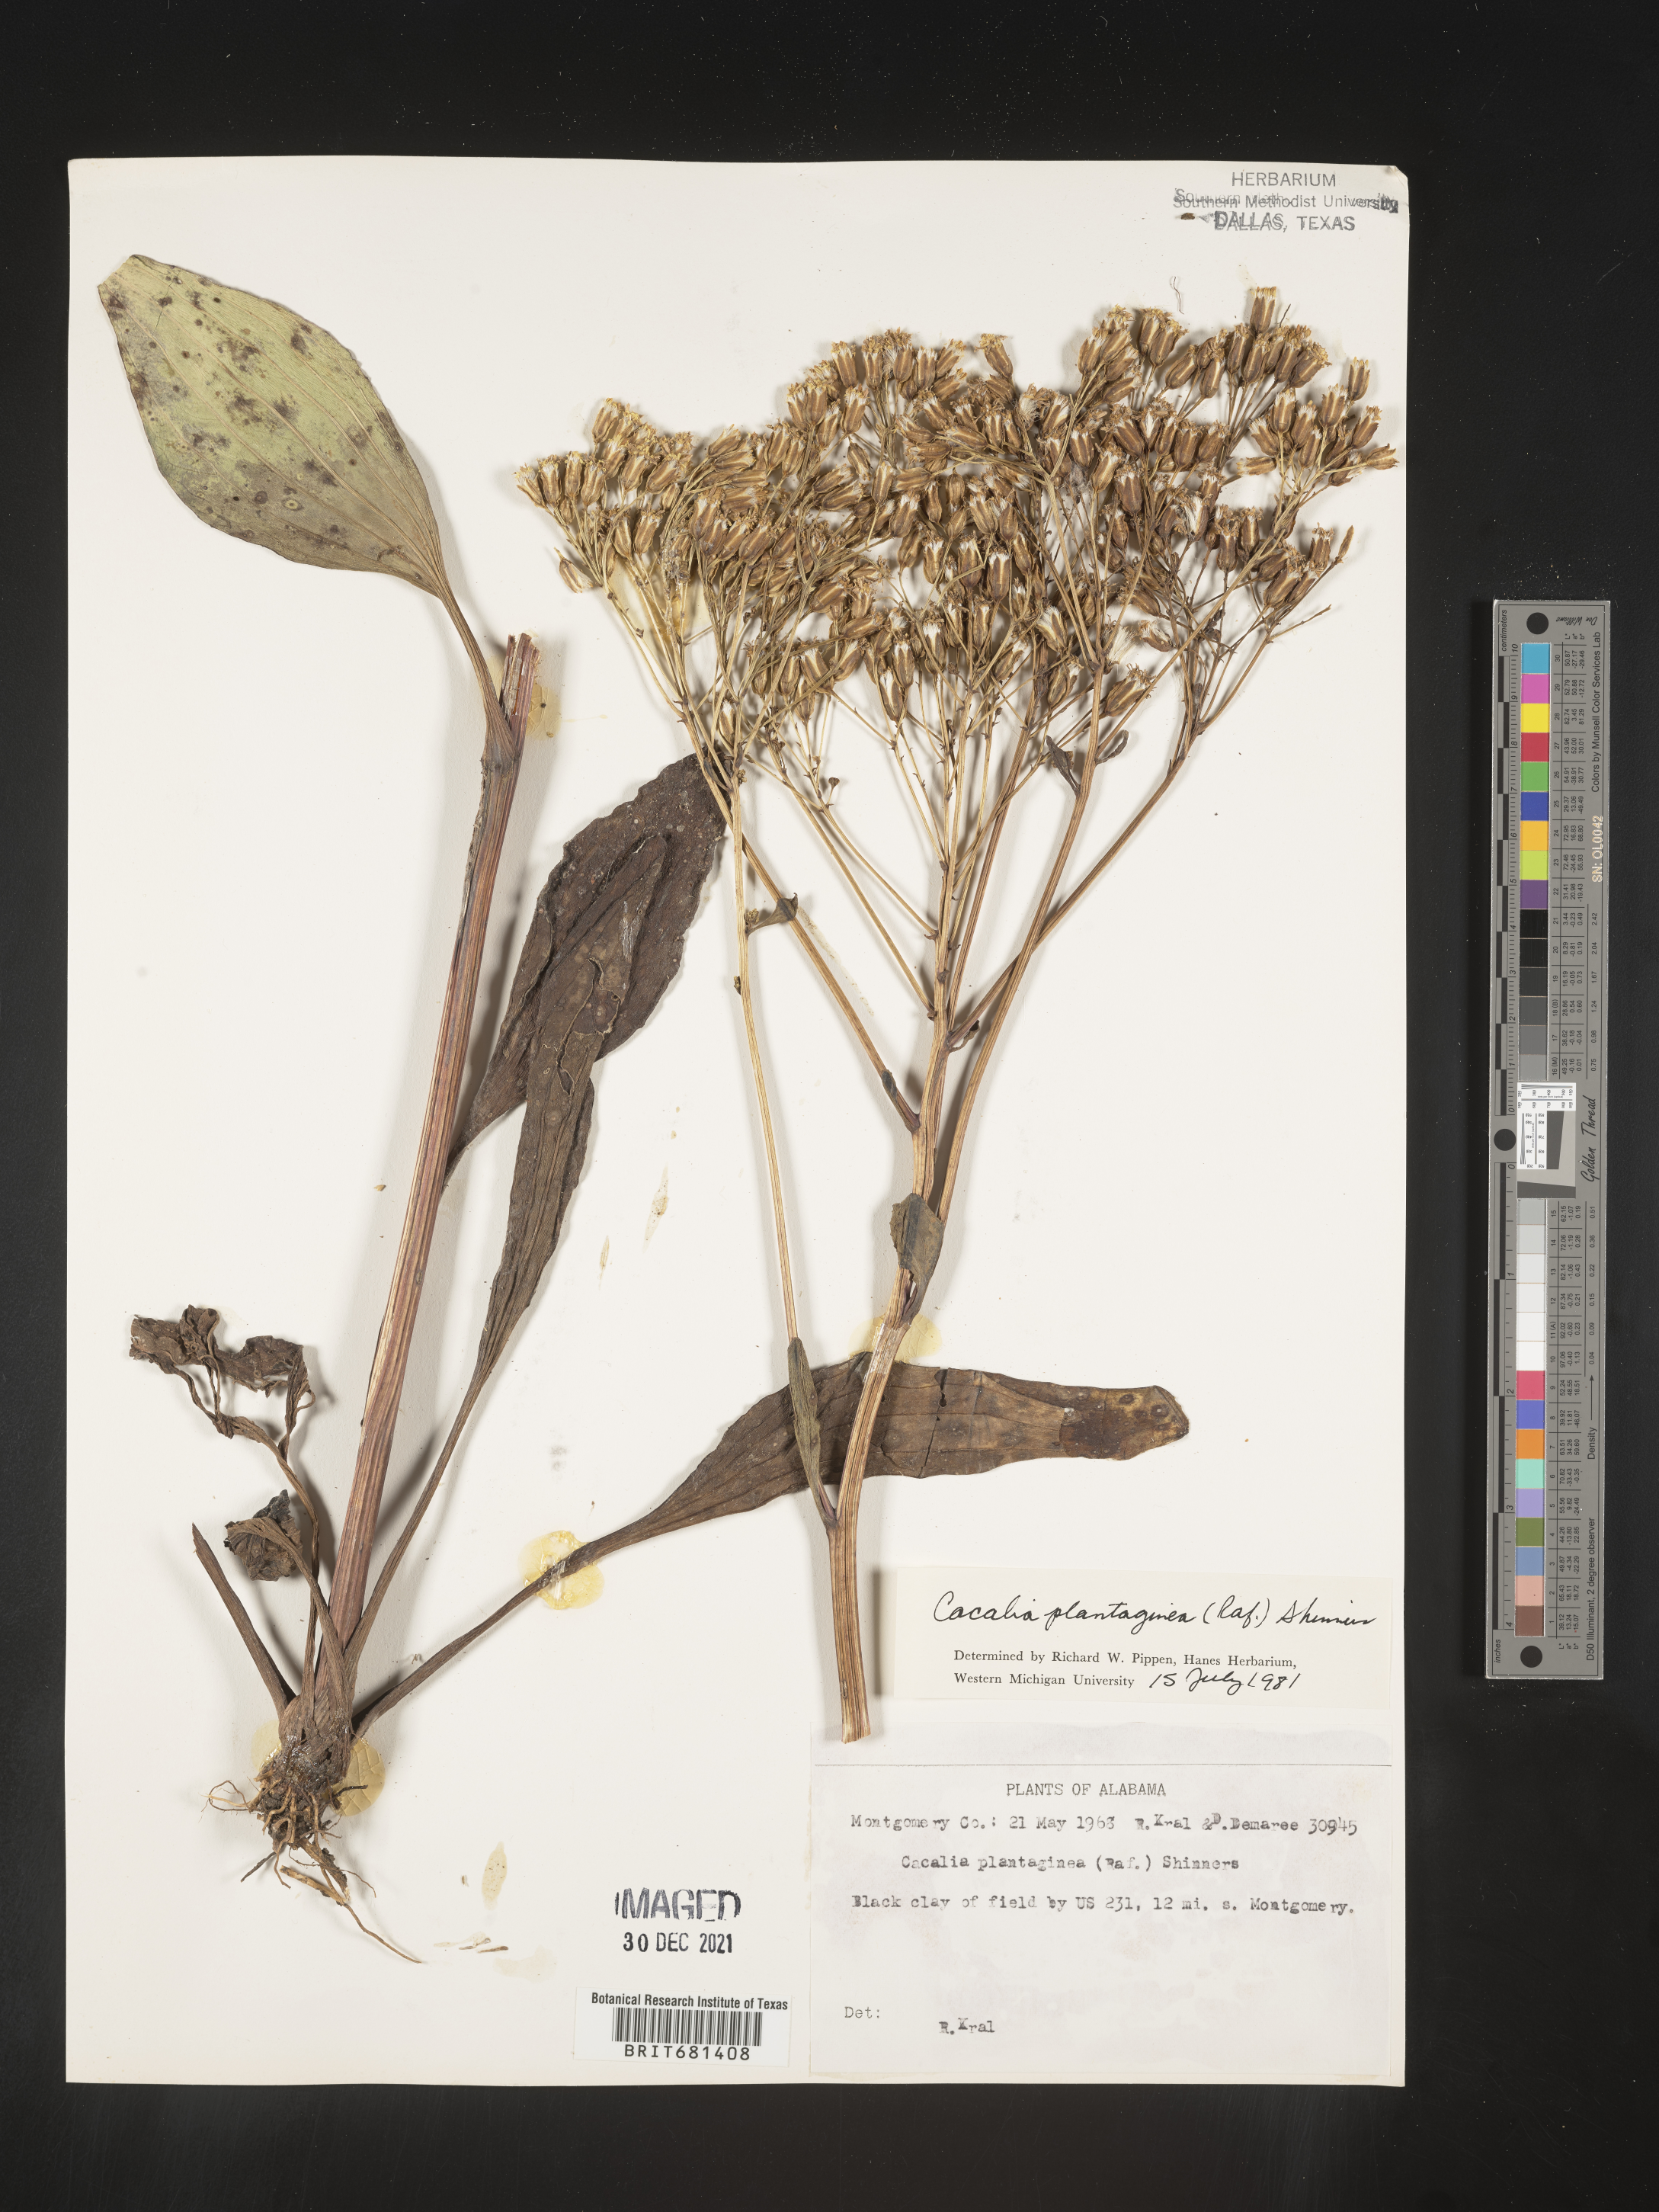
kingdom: Plantae
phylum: Tracheophyta
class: Magnoliopsida
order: Asterales
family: Asteraceae
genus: Arnoglossum
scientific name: Arnoglossum plantagineum
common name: Groove-stemmed indian-plantain
